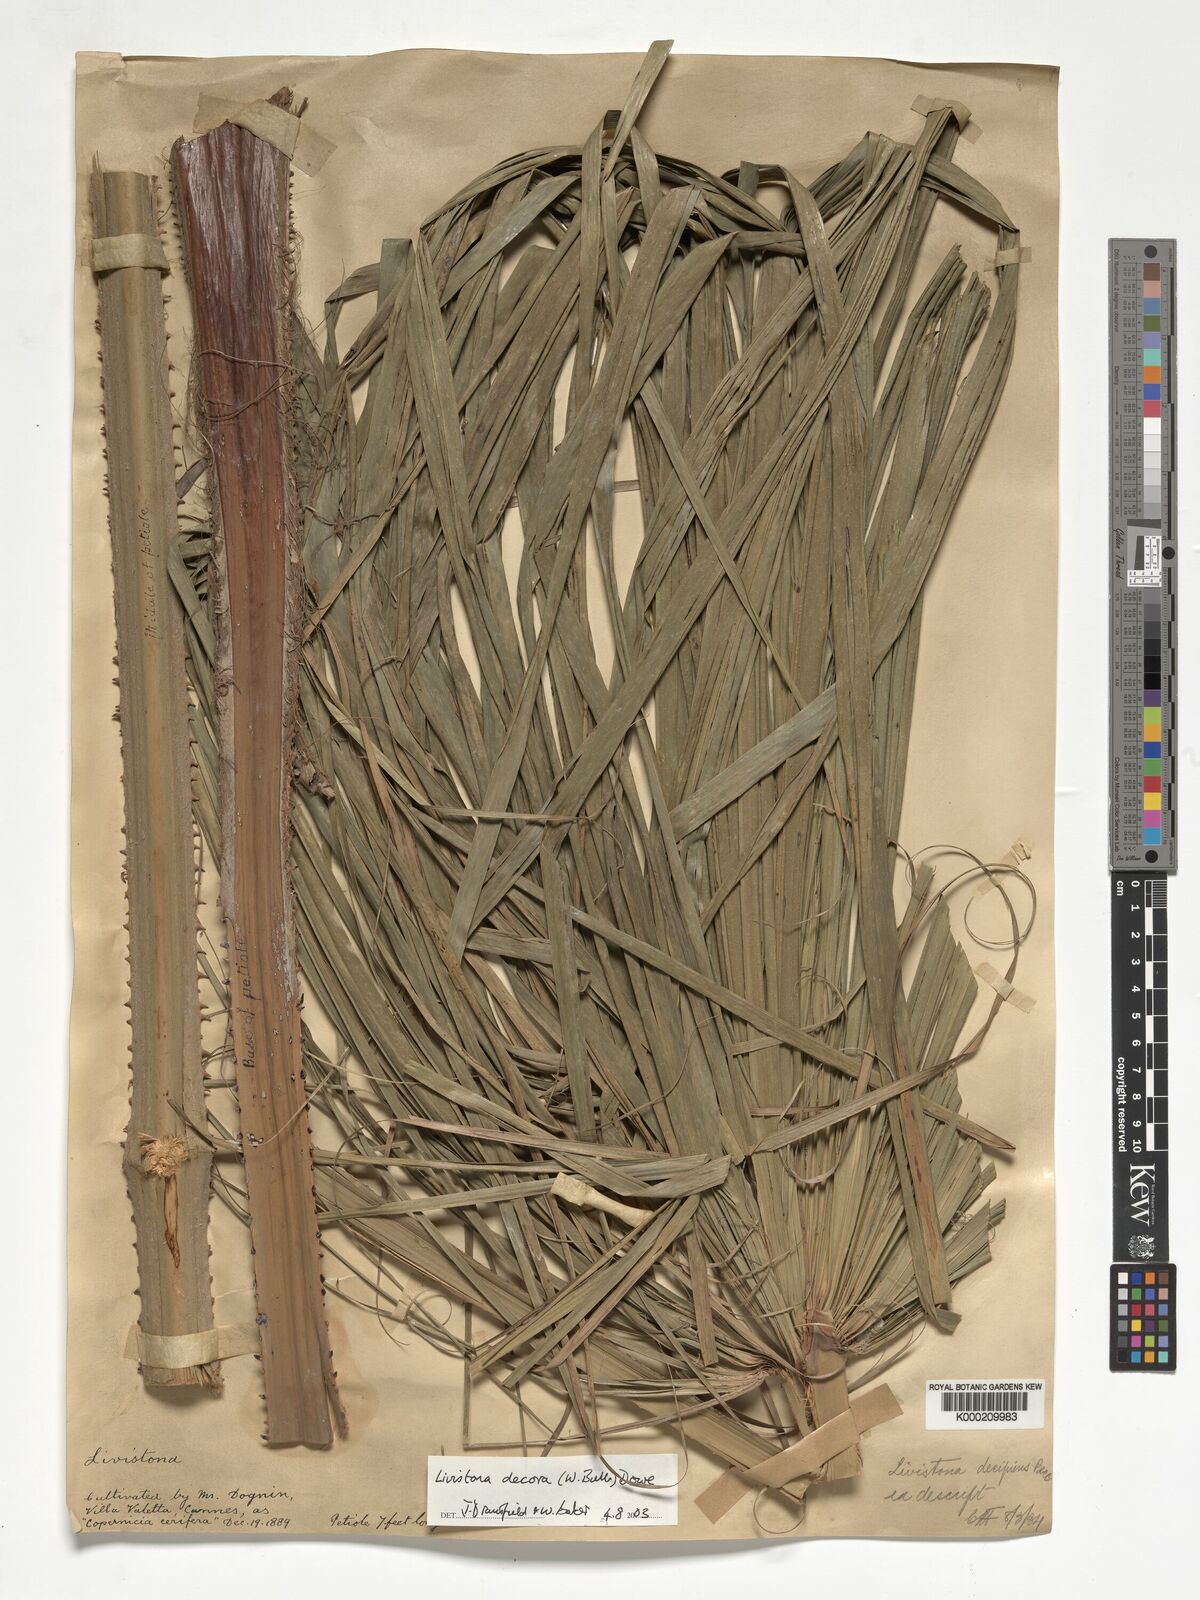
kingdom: Plantae
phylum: Tracheophyta
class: Liliopsida
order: Arecales
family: Arecaceae
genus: Livistona
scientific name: Livistona decora
